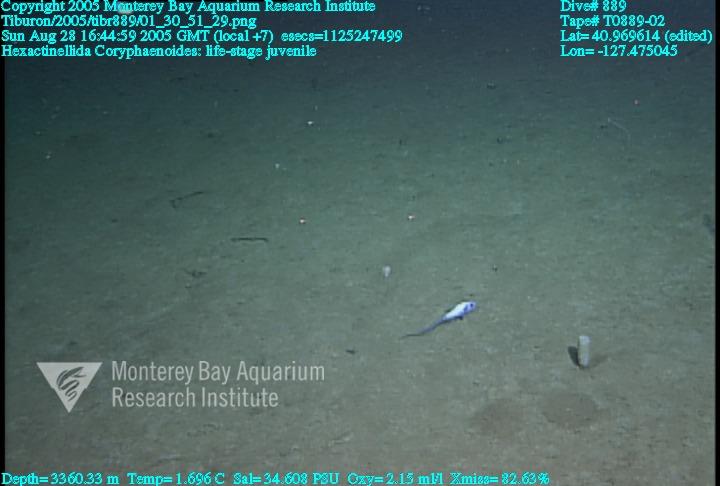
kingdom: Animalia
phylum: Porifera
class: Hexactinellida
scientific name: Hexactinellida
